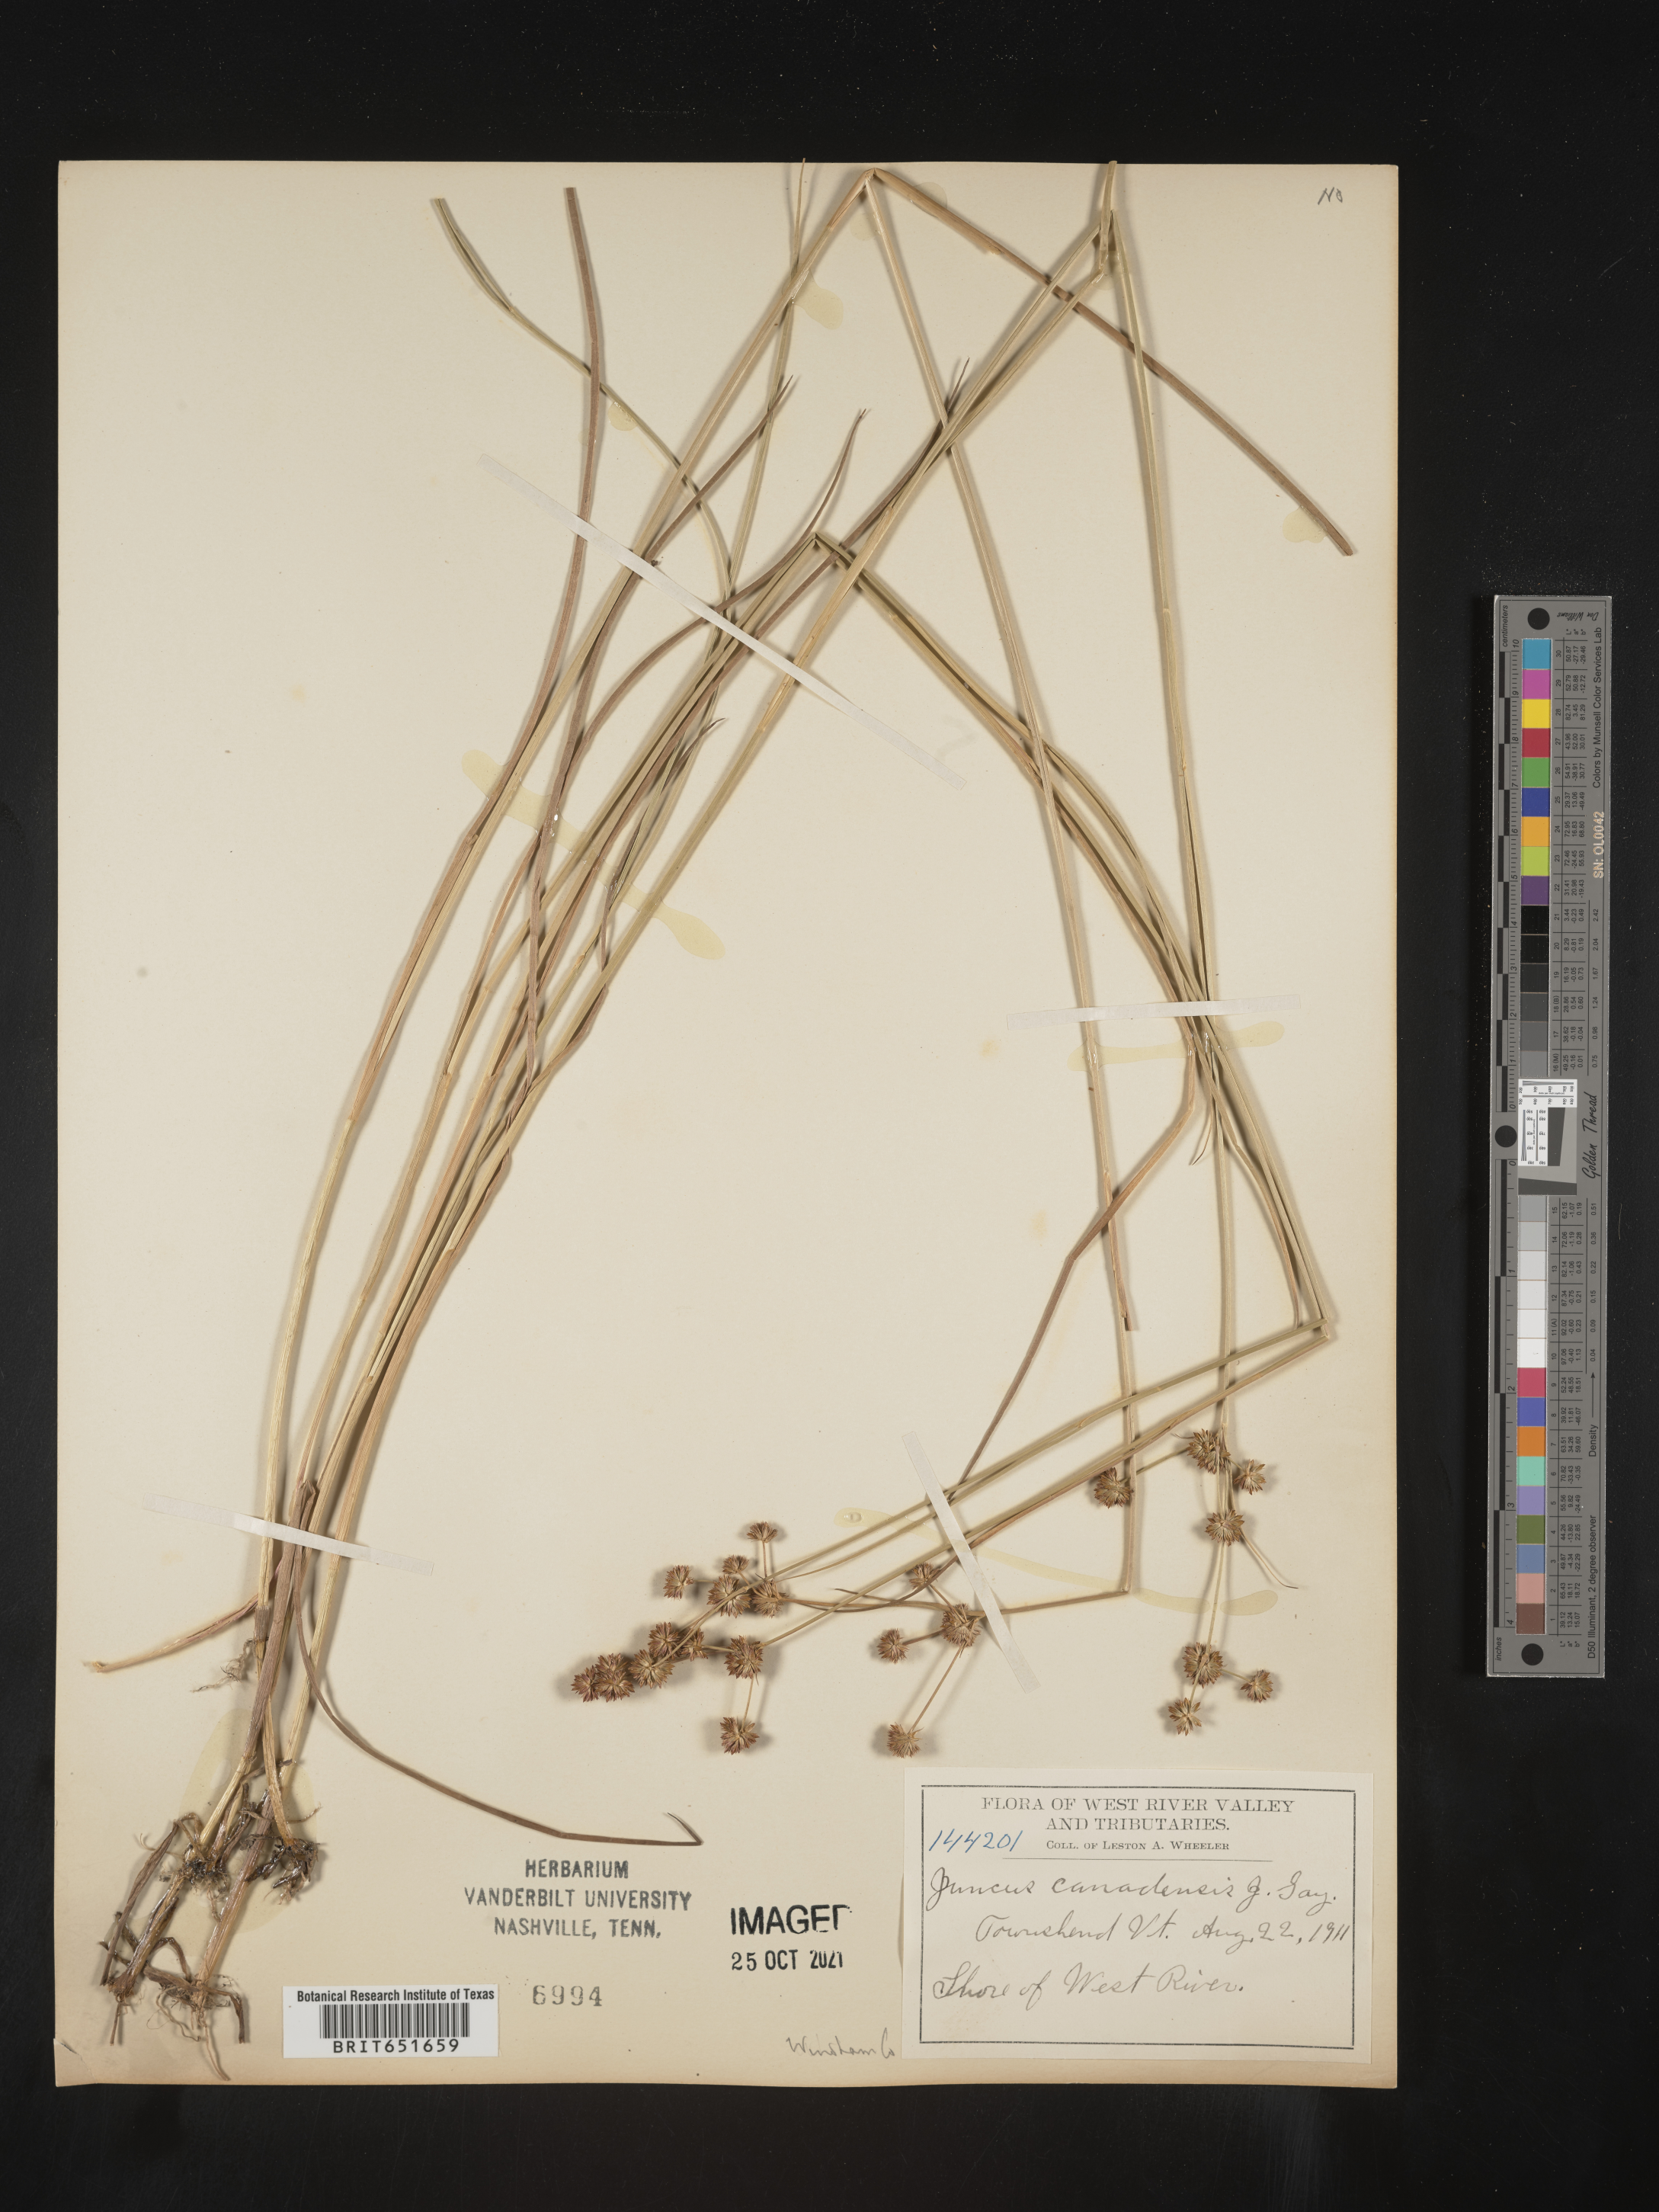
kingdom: Plantae
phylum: Tracheophyta
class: Liliopsida
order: Poales
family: Juncaceae
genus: Juncus
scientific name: Juncus canadensis
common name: Canada rush
